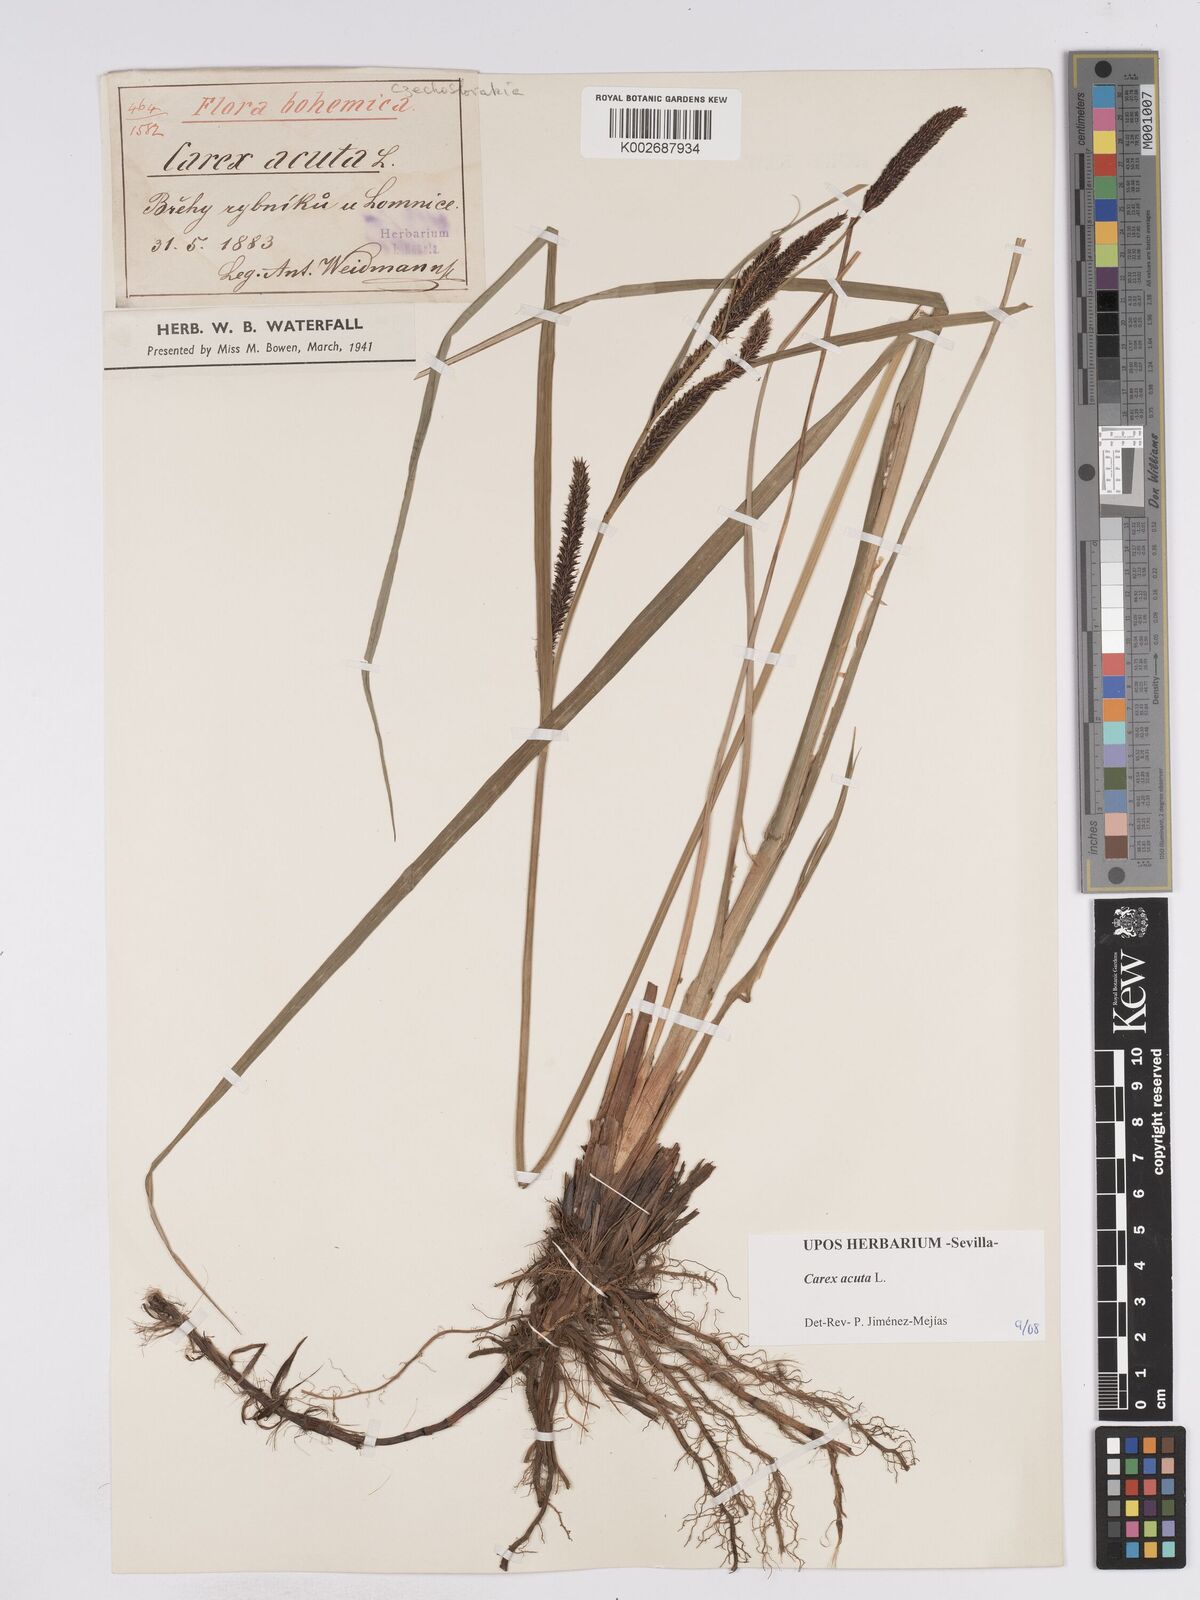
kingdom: Plantae
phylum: Tracheophyta
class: Liliopsida
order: Poales
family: Cyperaceae
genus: Carex
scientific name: Carex acuta
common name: Slender tufted-sedge
